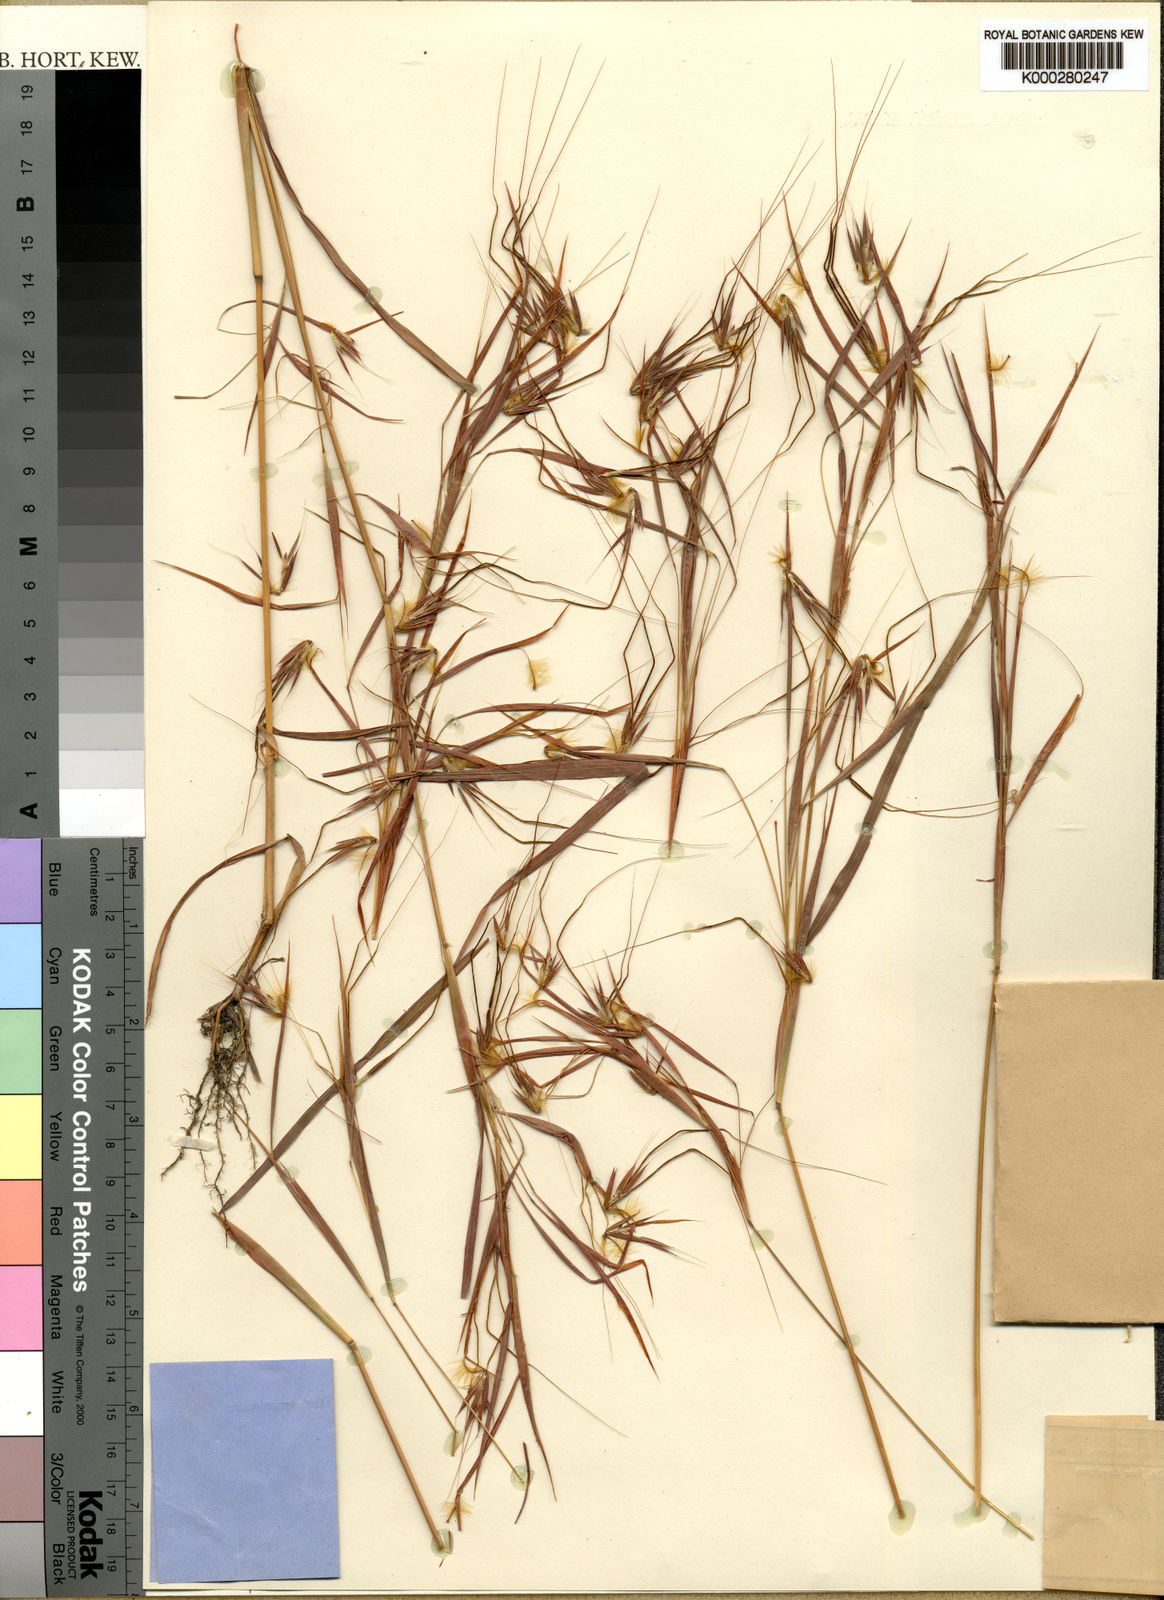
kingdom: Plantae
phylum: Tracheophyta
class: Liliopsida
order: Poales
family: Poaceae
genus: Hyparrhenia
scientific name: Hyparrhenia welwitschii
